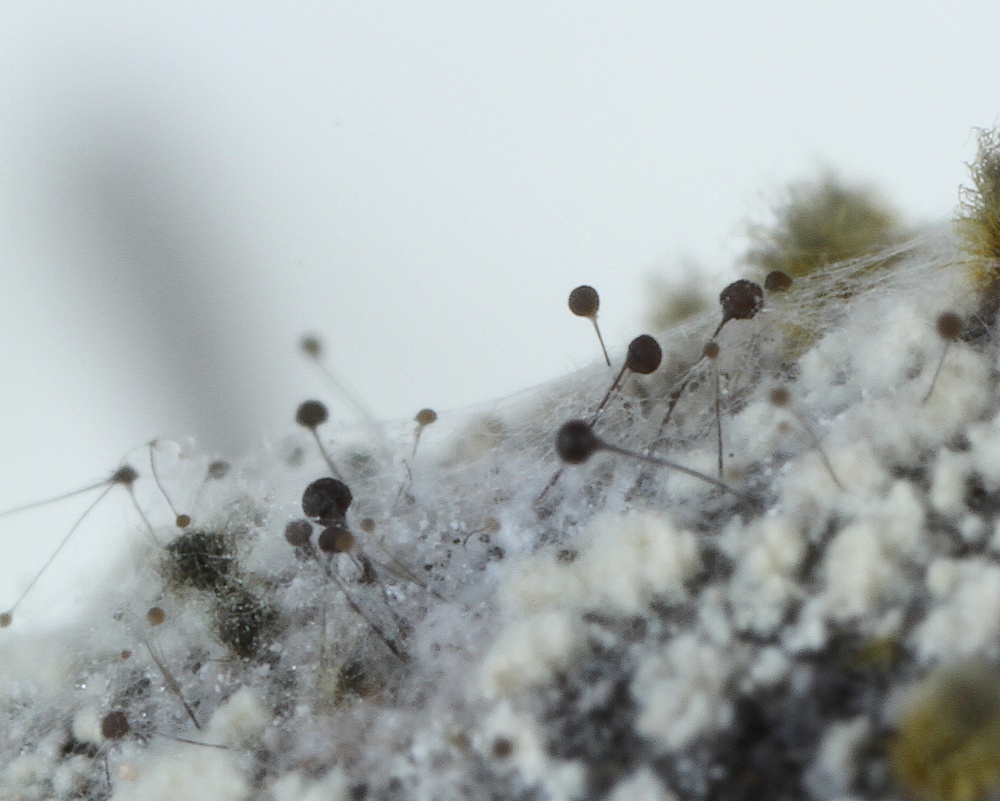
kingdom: Fungi
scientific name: Fungi
